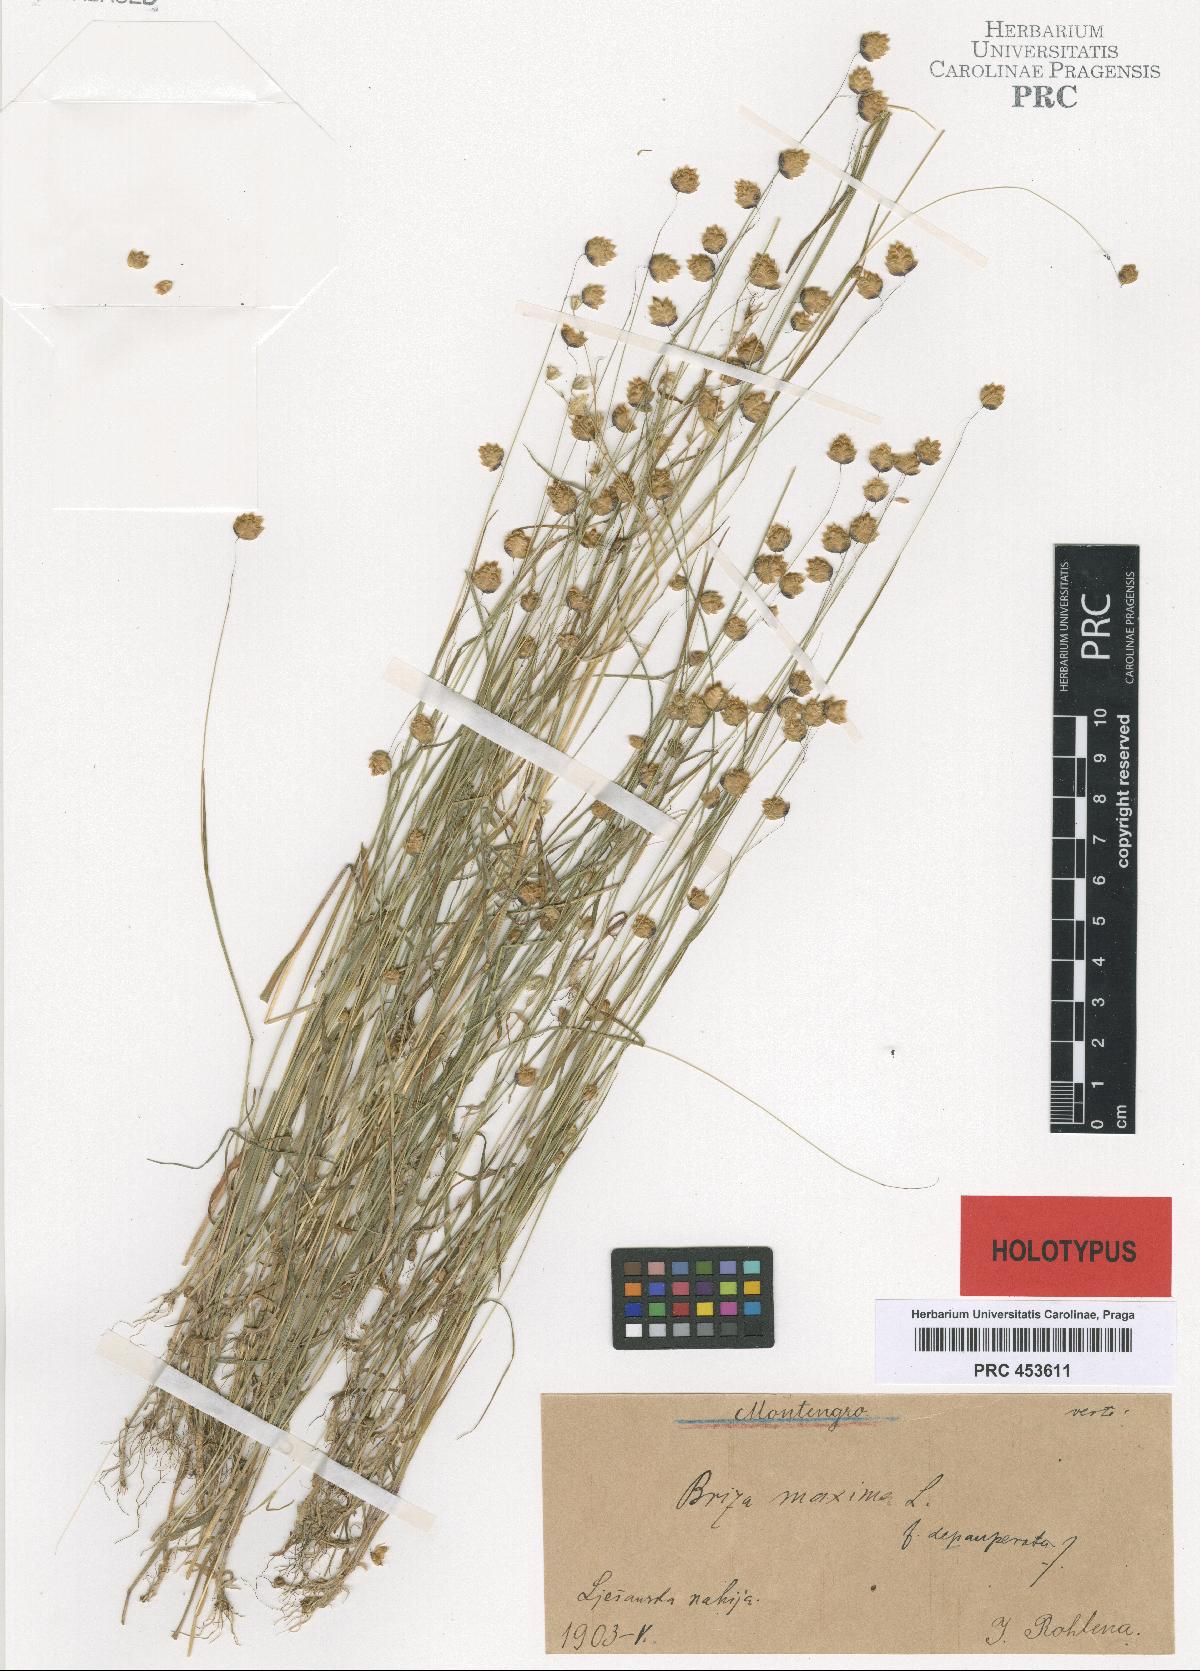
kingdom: Plantae
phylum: Tracheophyta
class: Liliopsida
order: Poales
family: Poaceae
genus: Briza
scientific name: Briza maxima
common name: Big quakinggrass
